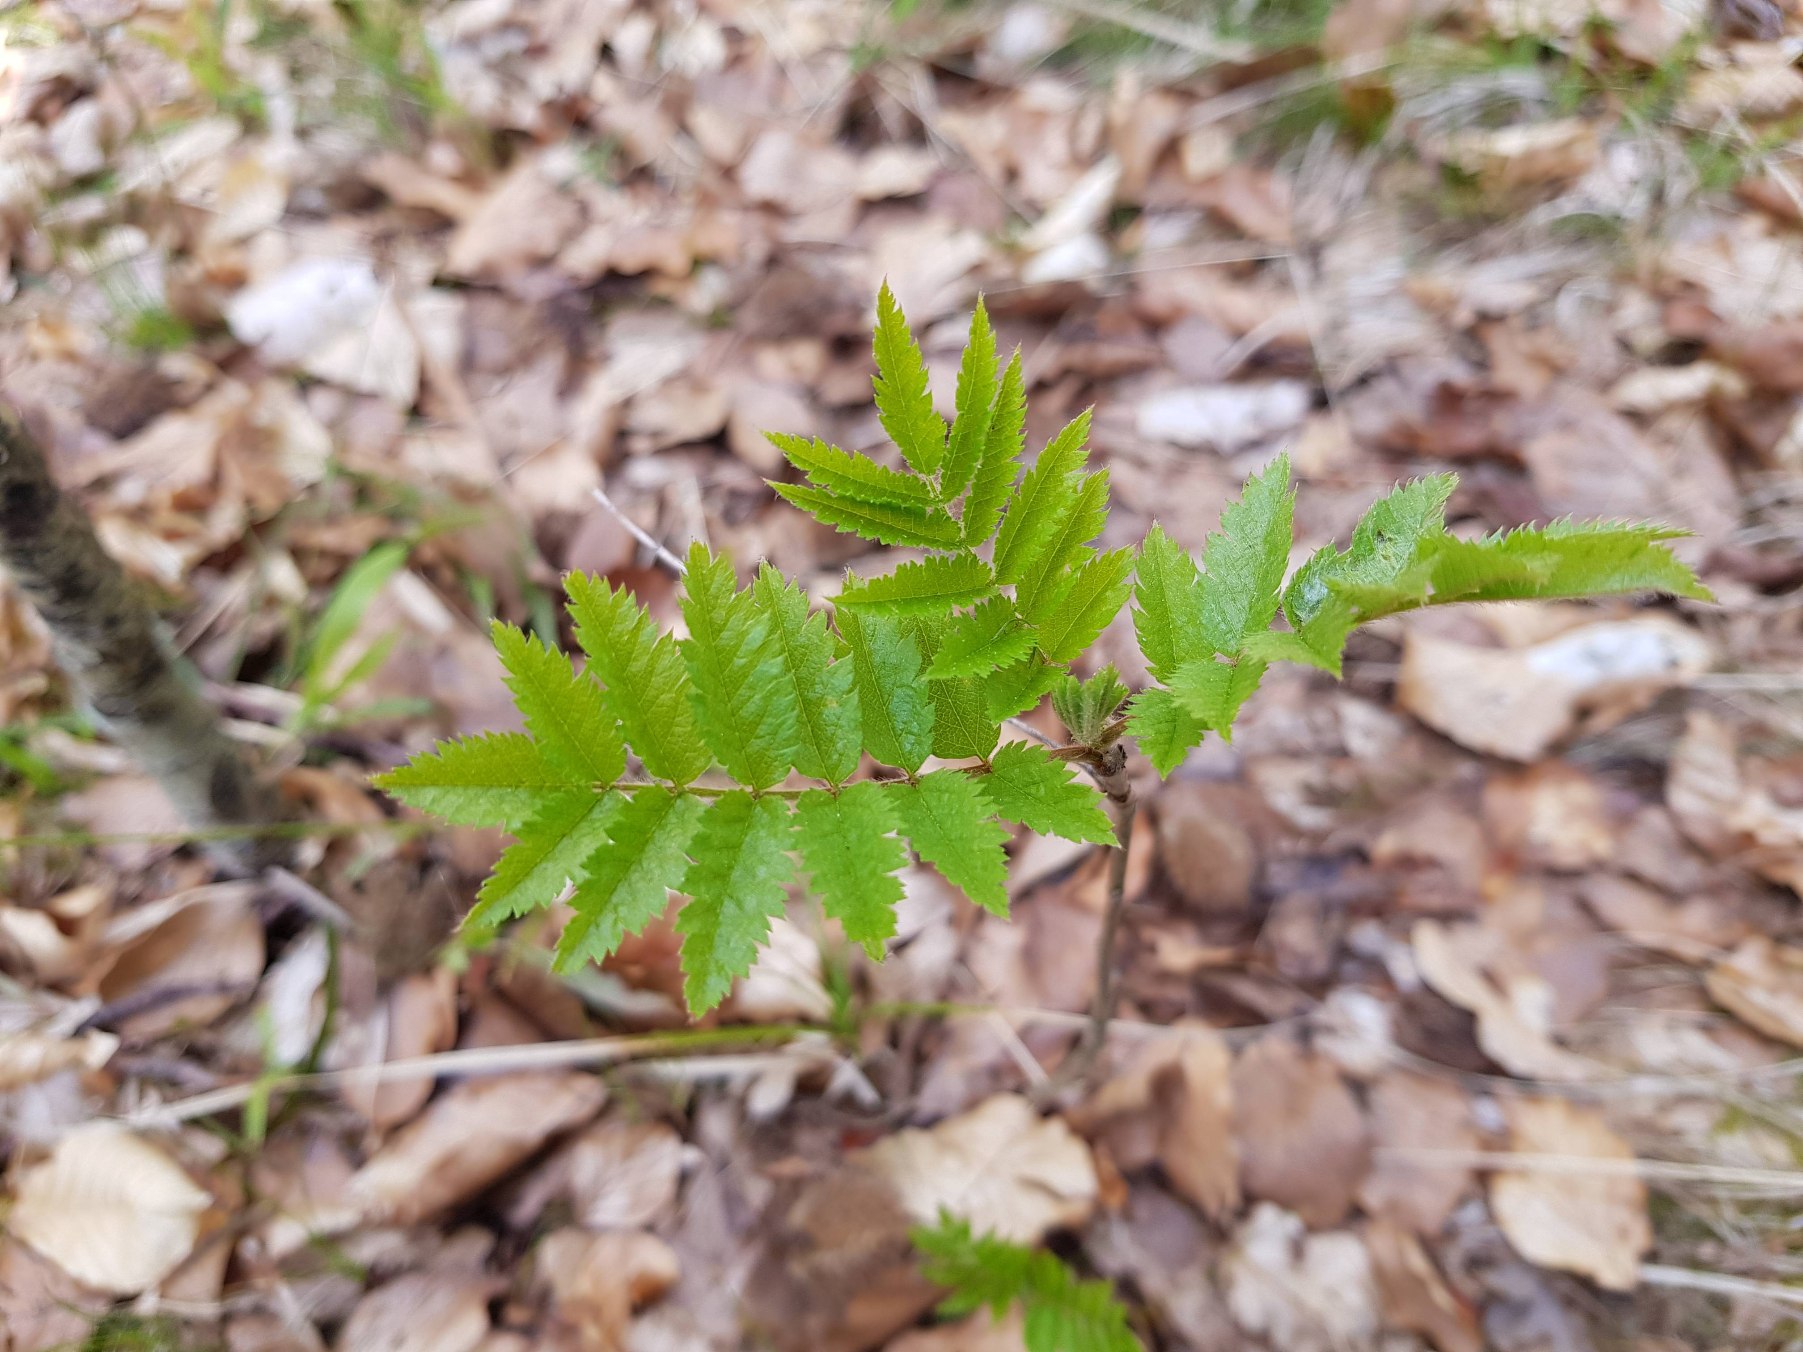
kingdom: Plantae
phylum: Tracheophyta
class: Magnoliopsida
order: Rosales
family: Rosaceae
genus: Sorbus
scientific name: Sorbus aucuparia
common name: Almindelig røn
